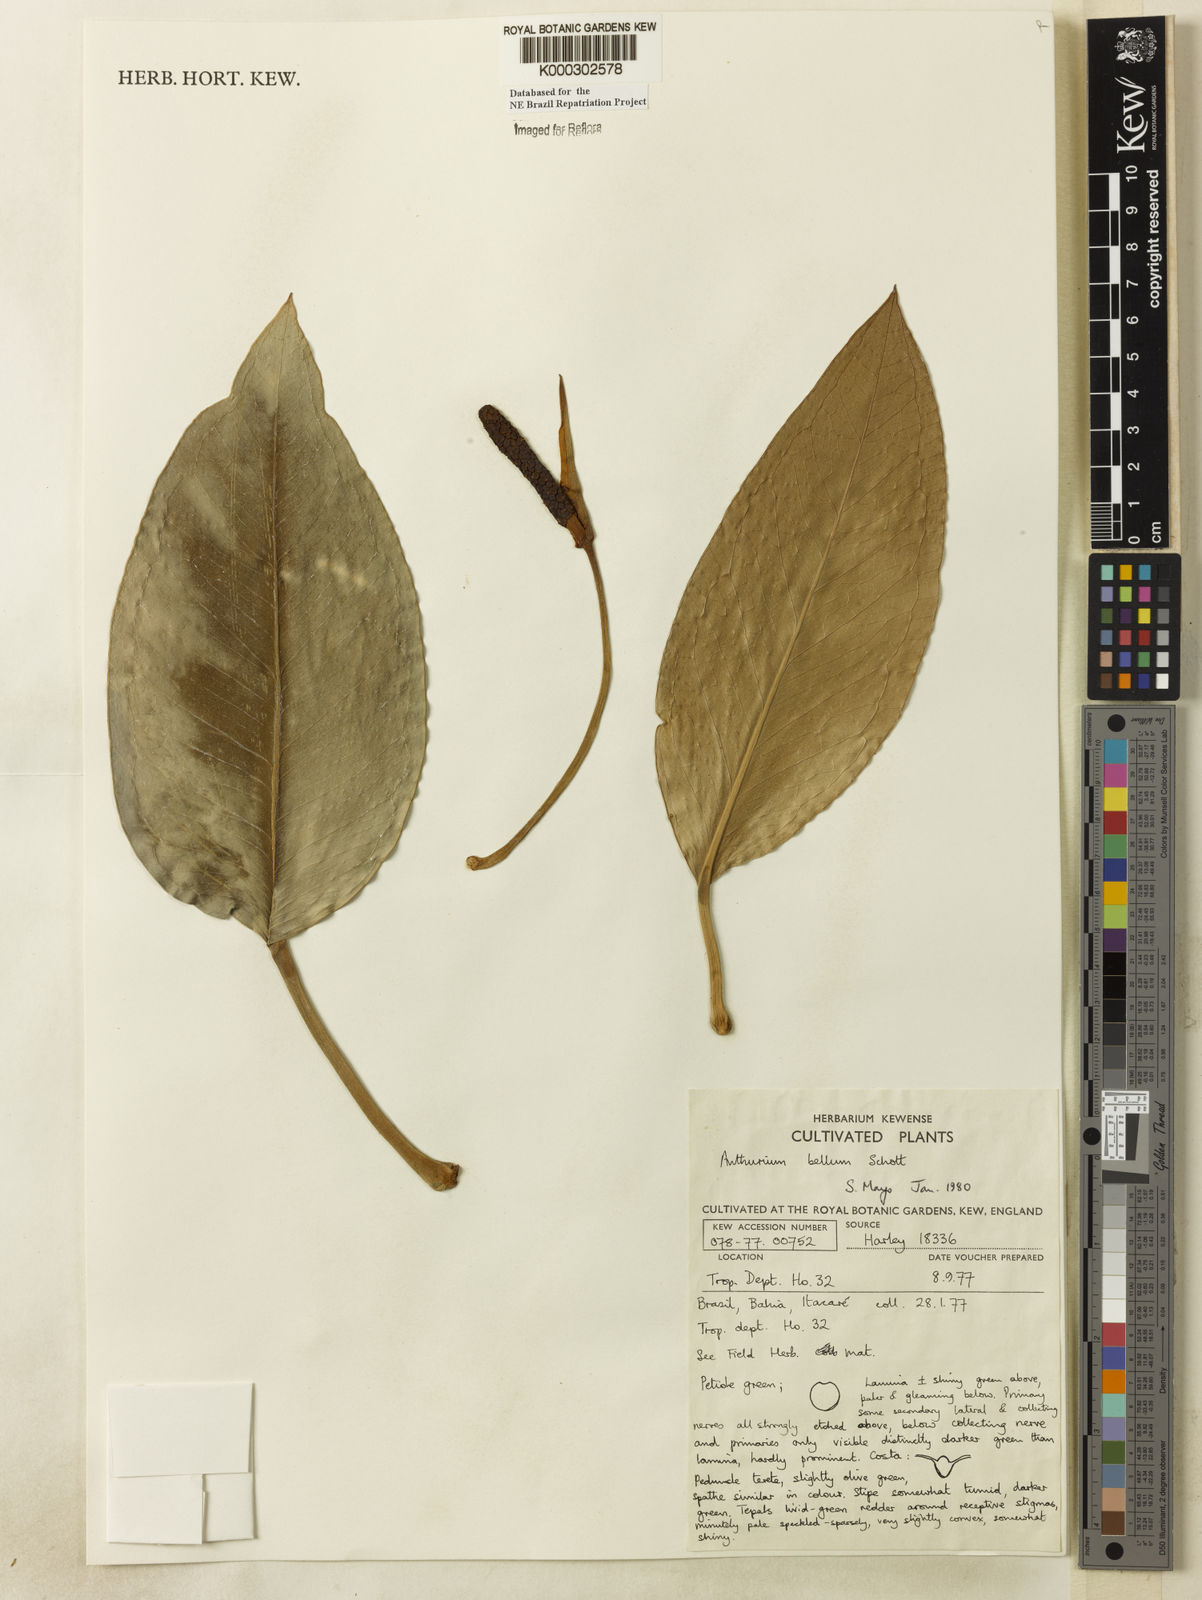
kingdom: Plantae
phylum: Tracheophyta
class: Liliopsida
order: Alismatales
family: Araceae
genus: Anthurium
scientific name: Anthurium bellum
